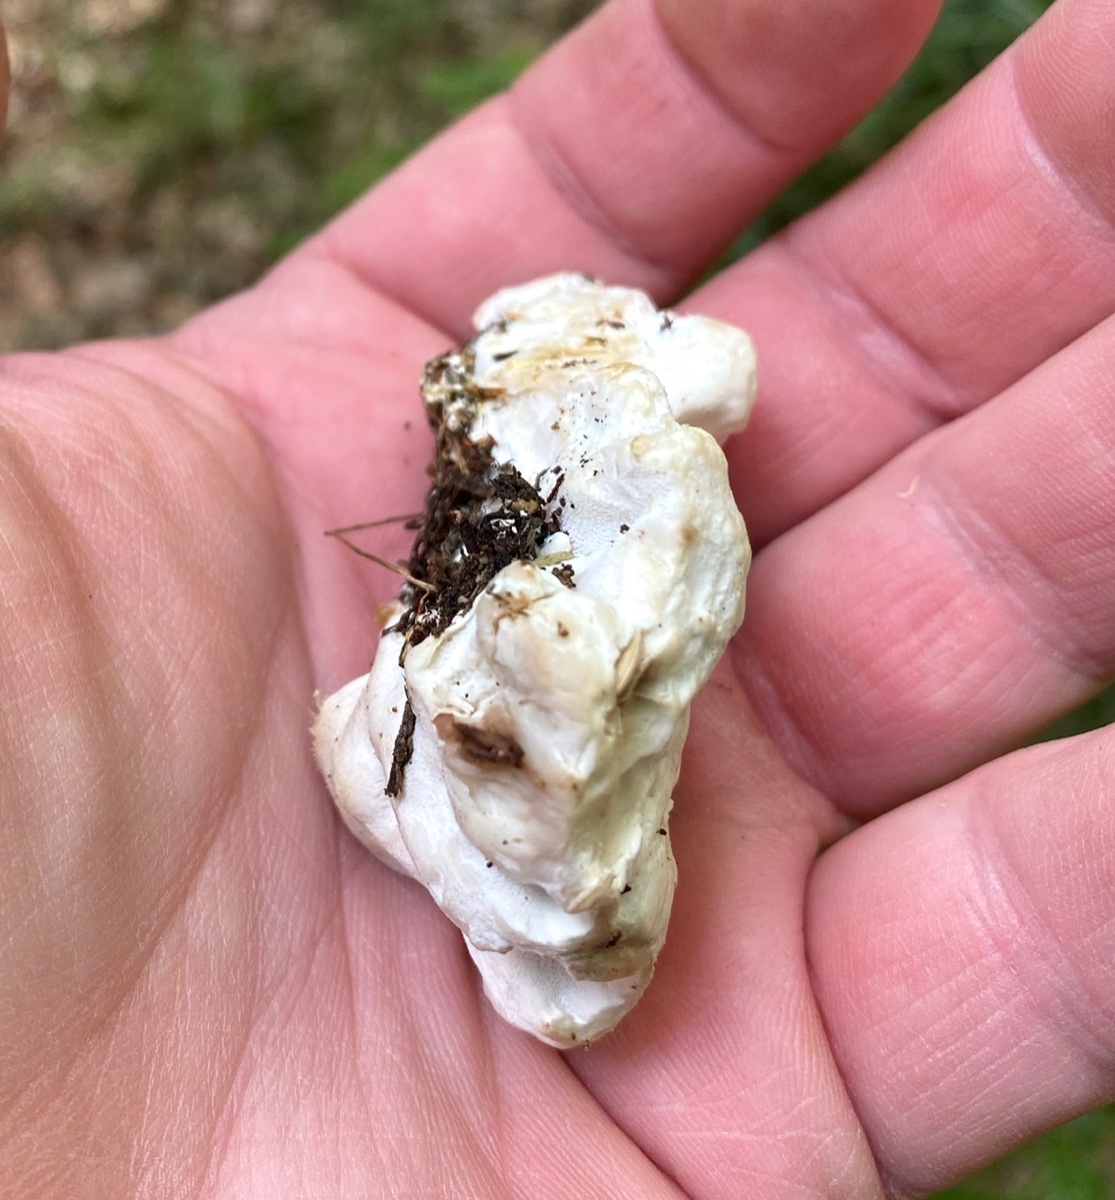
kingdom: Fungi
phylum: Basidiomycota
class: Agaricomycetes
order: Polyporales
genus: Calcipostia
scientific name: Calcipostia guttulata
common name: dråbe-kødporesvamp
